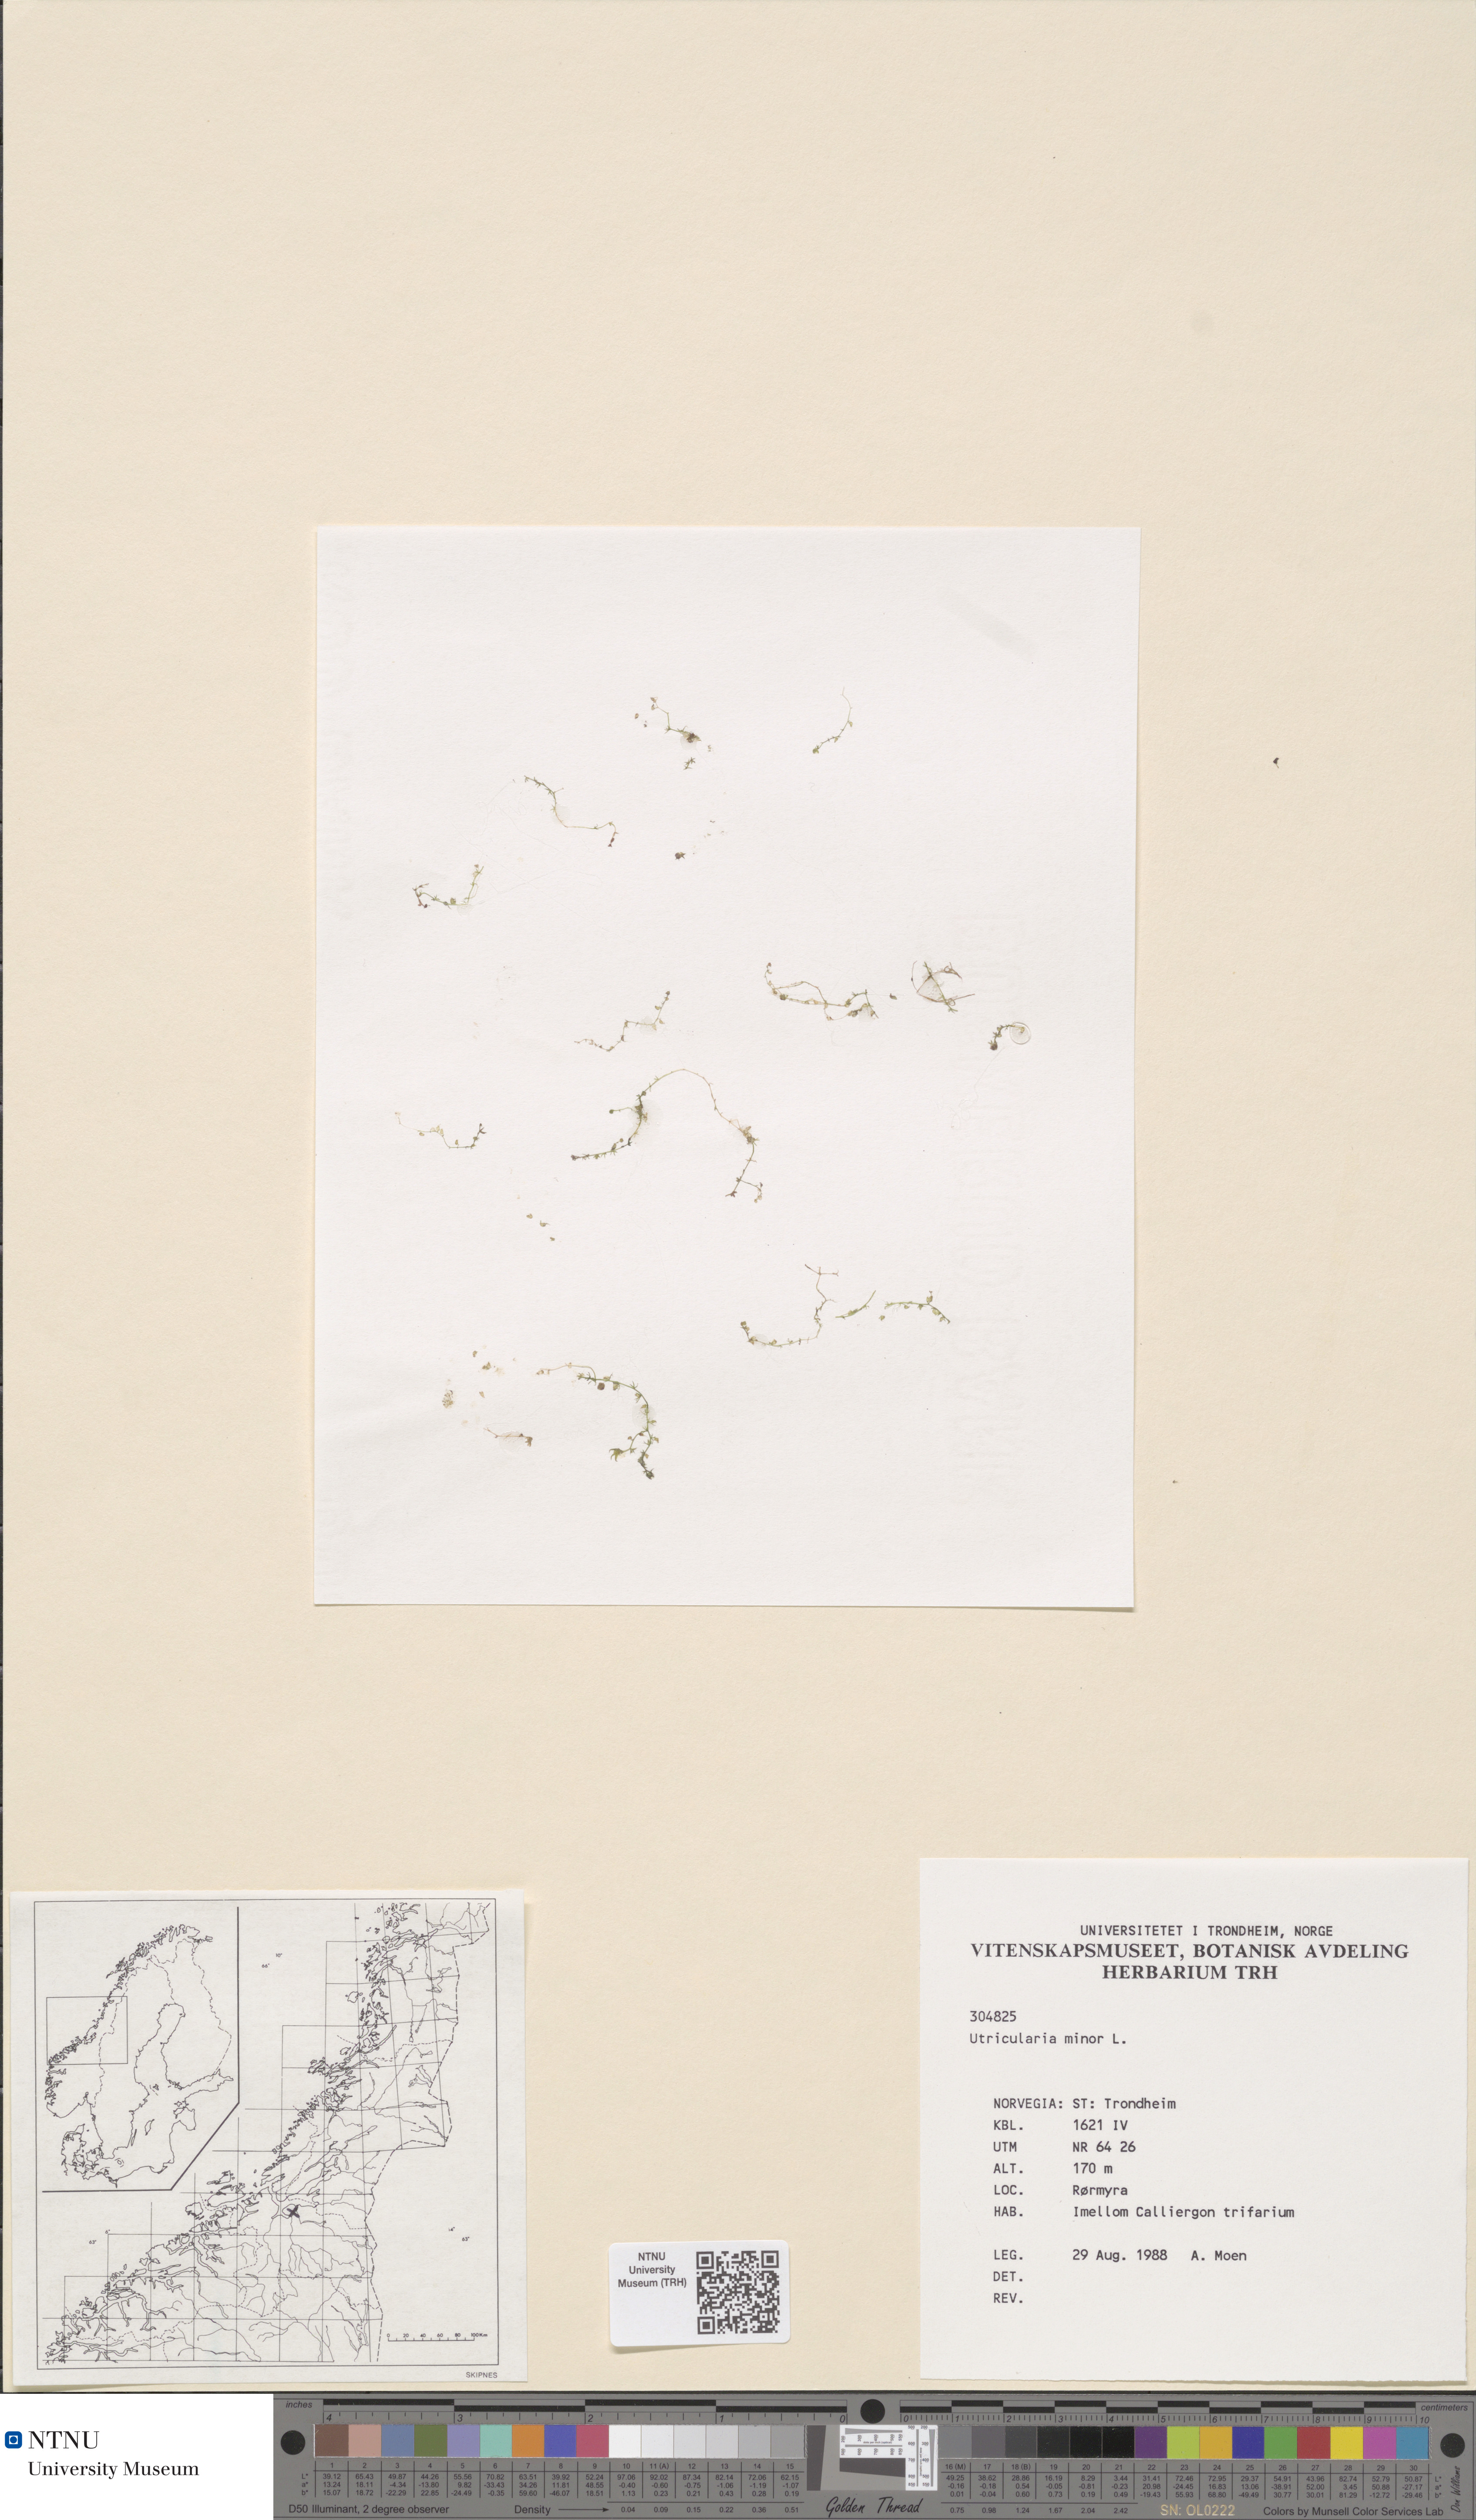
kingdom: Plantae
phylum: Tracheophyta
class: Magnoliopsida
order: Lamiales
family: Lentibulariaceae
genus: Utricularia
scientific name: Utricularia minor
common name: Lesser bladderwort
